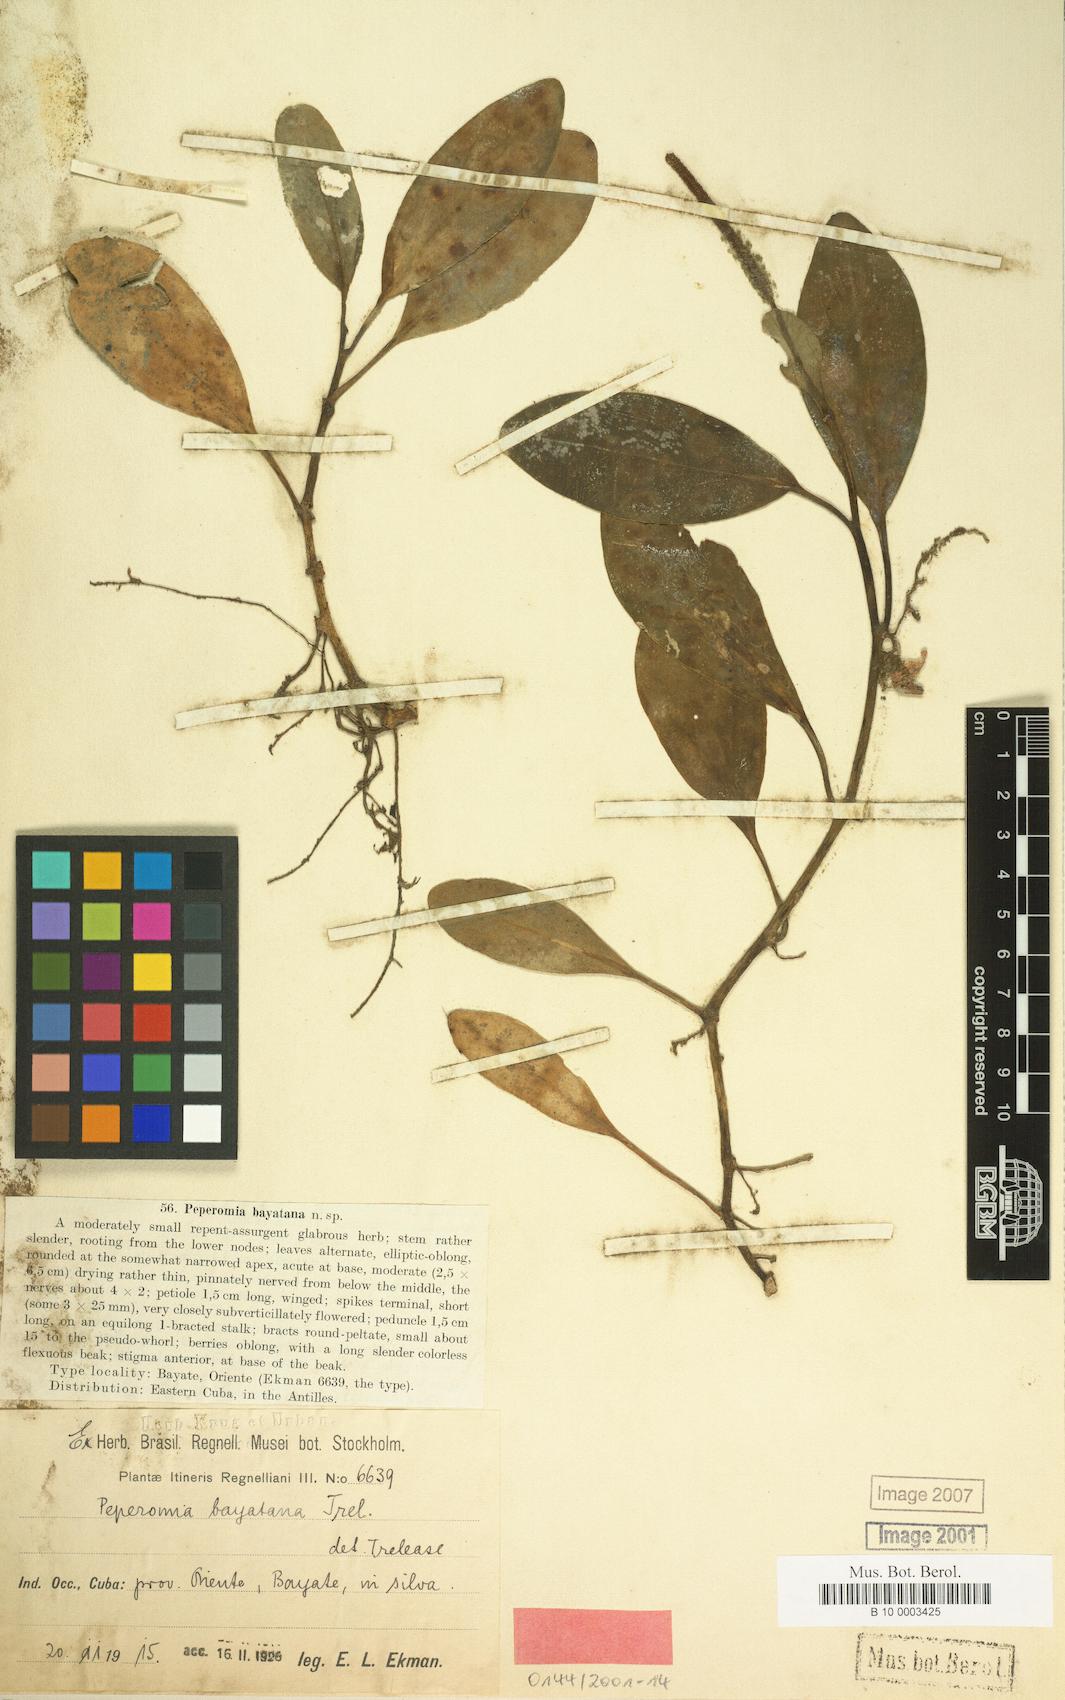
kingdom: Plantae
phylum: Tracheophyta
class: Magnoliopsida
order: Piperales
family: Piperaceae
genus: Peperomia
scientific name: Peperomia obtusifolia
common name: Baby rubberplant
